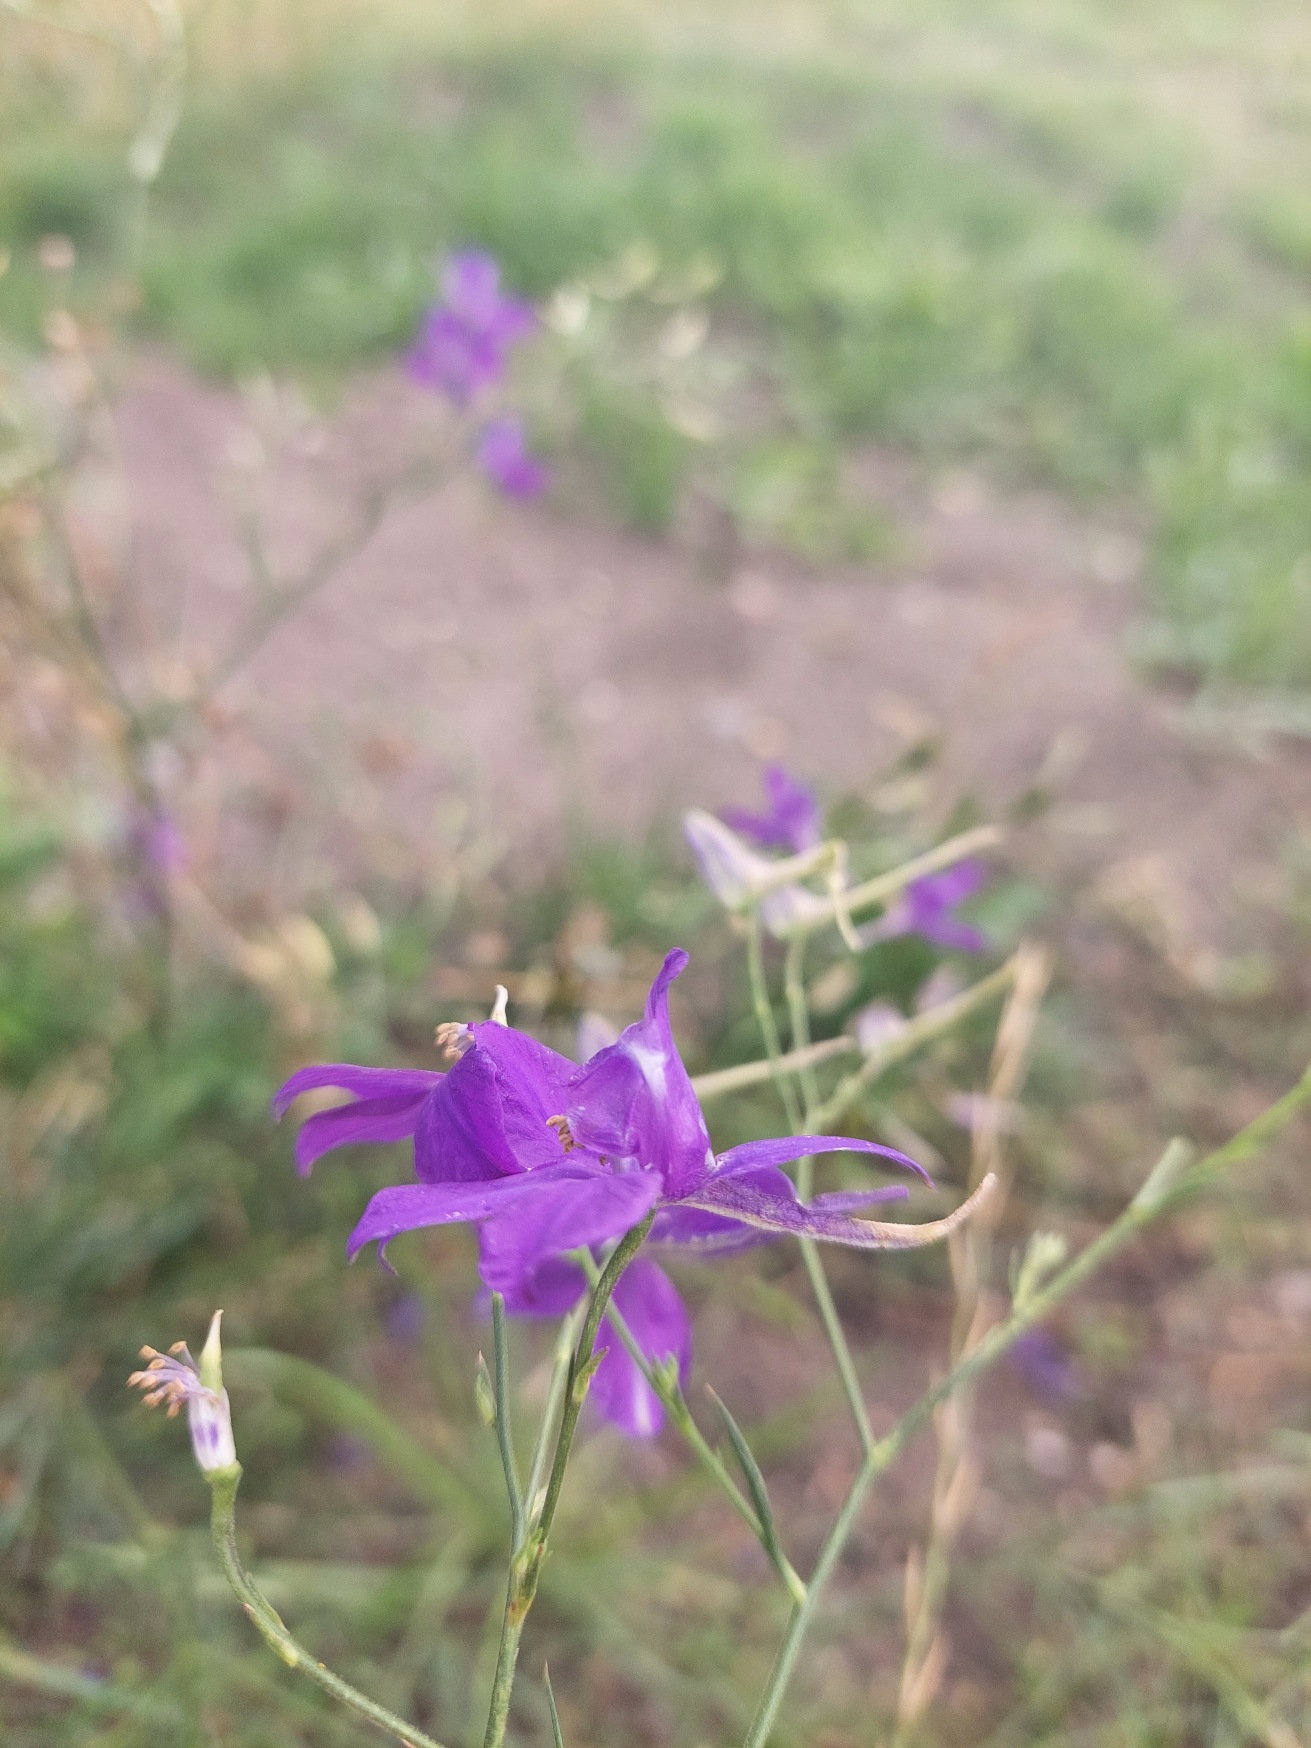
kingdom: Plantae
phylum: Tracheophyta
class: Magnoliopsida
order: Ranunculales
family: Ranunculaceae
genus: Delphinium
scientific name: Delphinium consolida
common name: Korn-ridderspore
